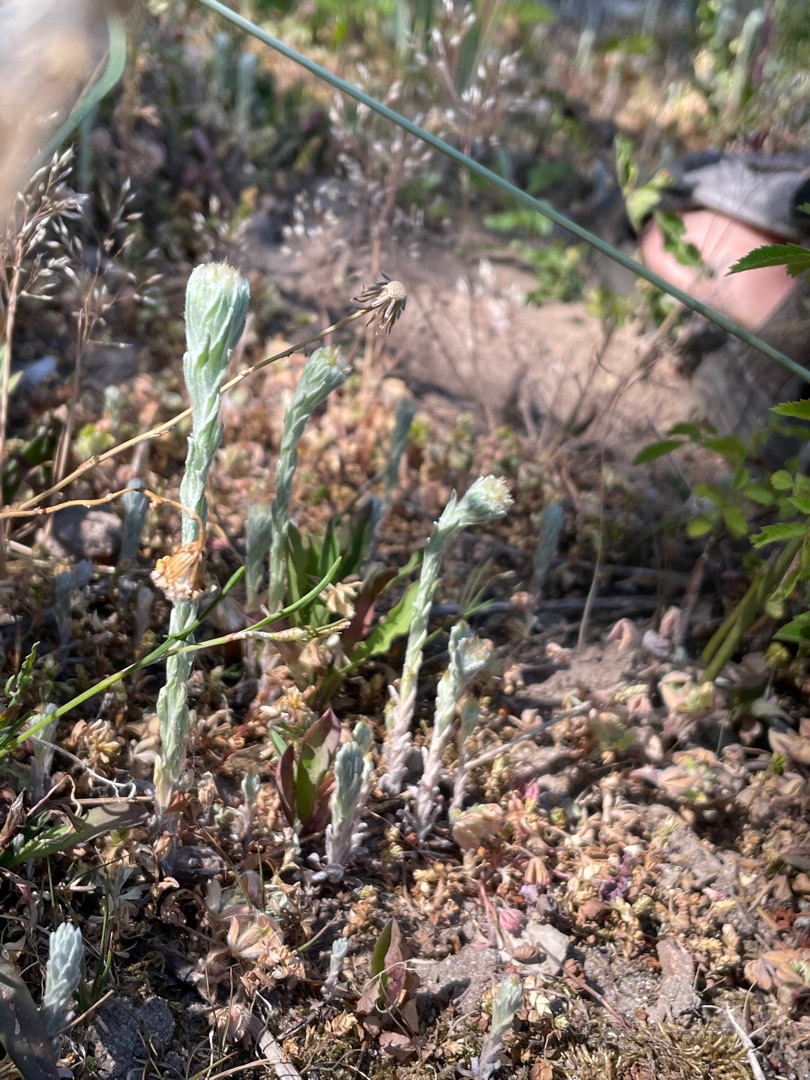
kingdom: Plantae
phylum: Tracheophyta
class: Magnoliopsida
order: Asterales
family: Asteraceae
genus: Filago
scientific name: Filago germanica
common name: Kugle-museurt
